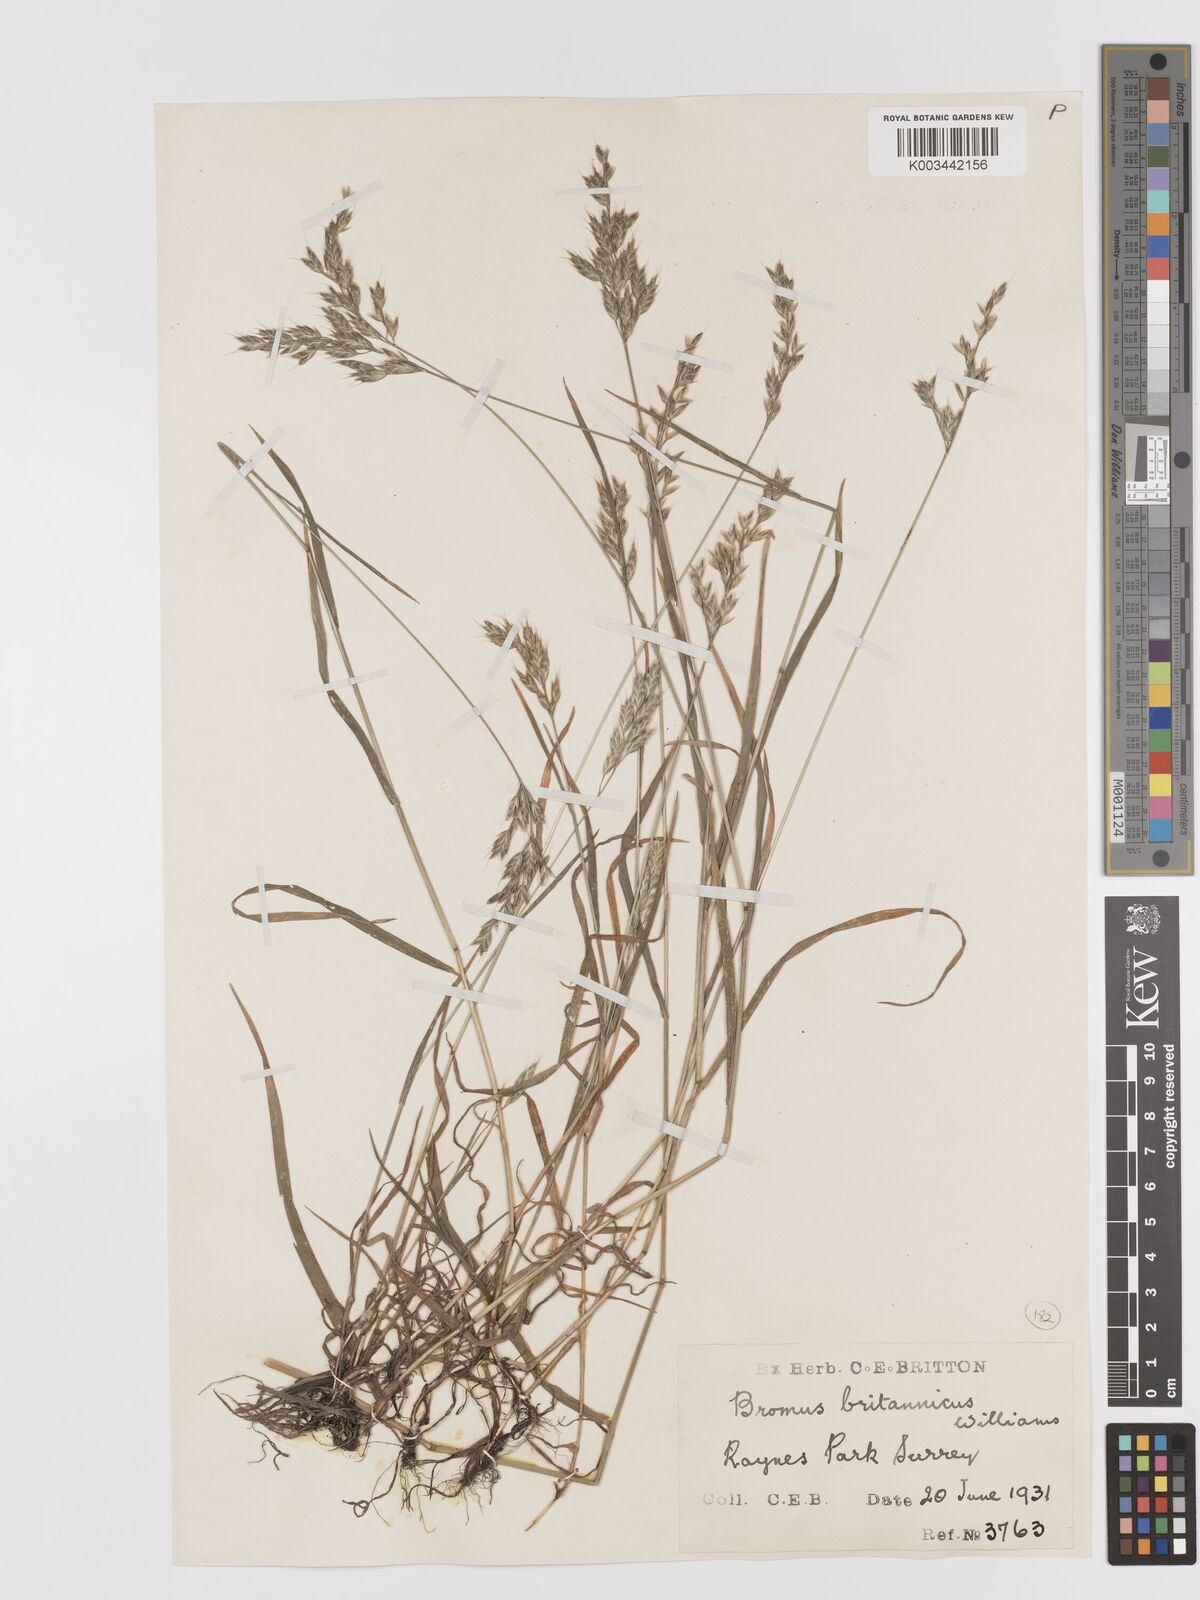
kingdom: Plantae
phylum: Tracheophyta
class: Liliopsida
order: Poales
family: Poaceae
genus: Bromus
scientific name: Bromus lepidus
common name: Slender soft-brome
